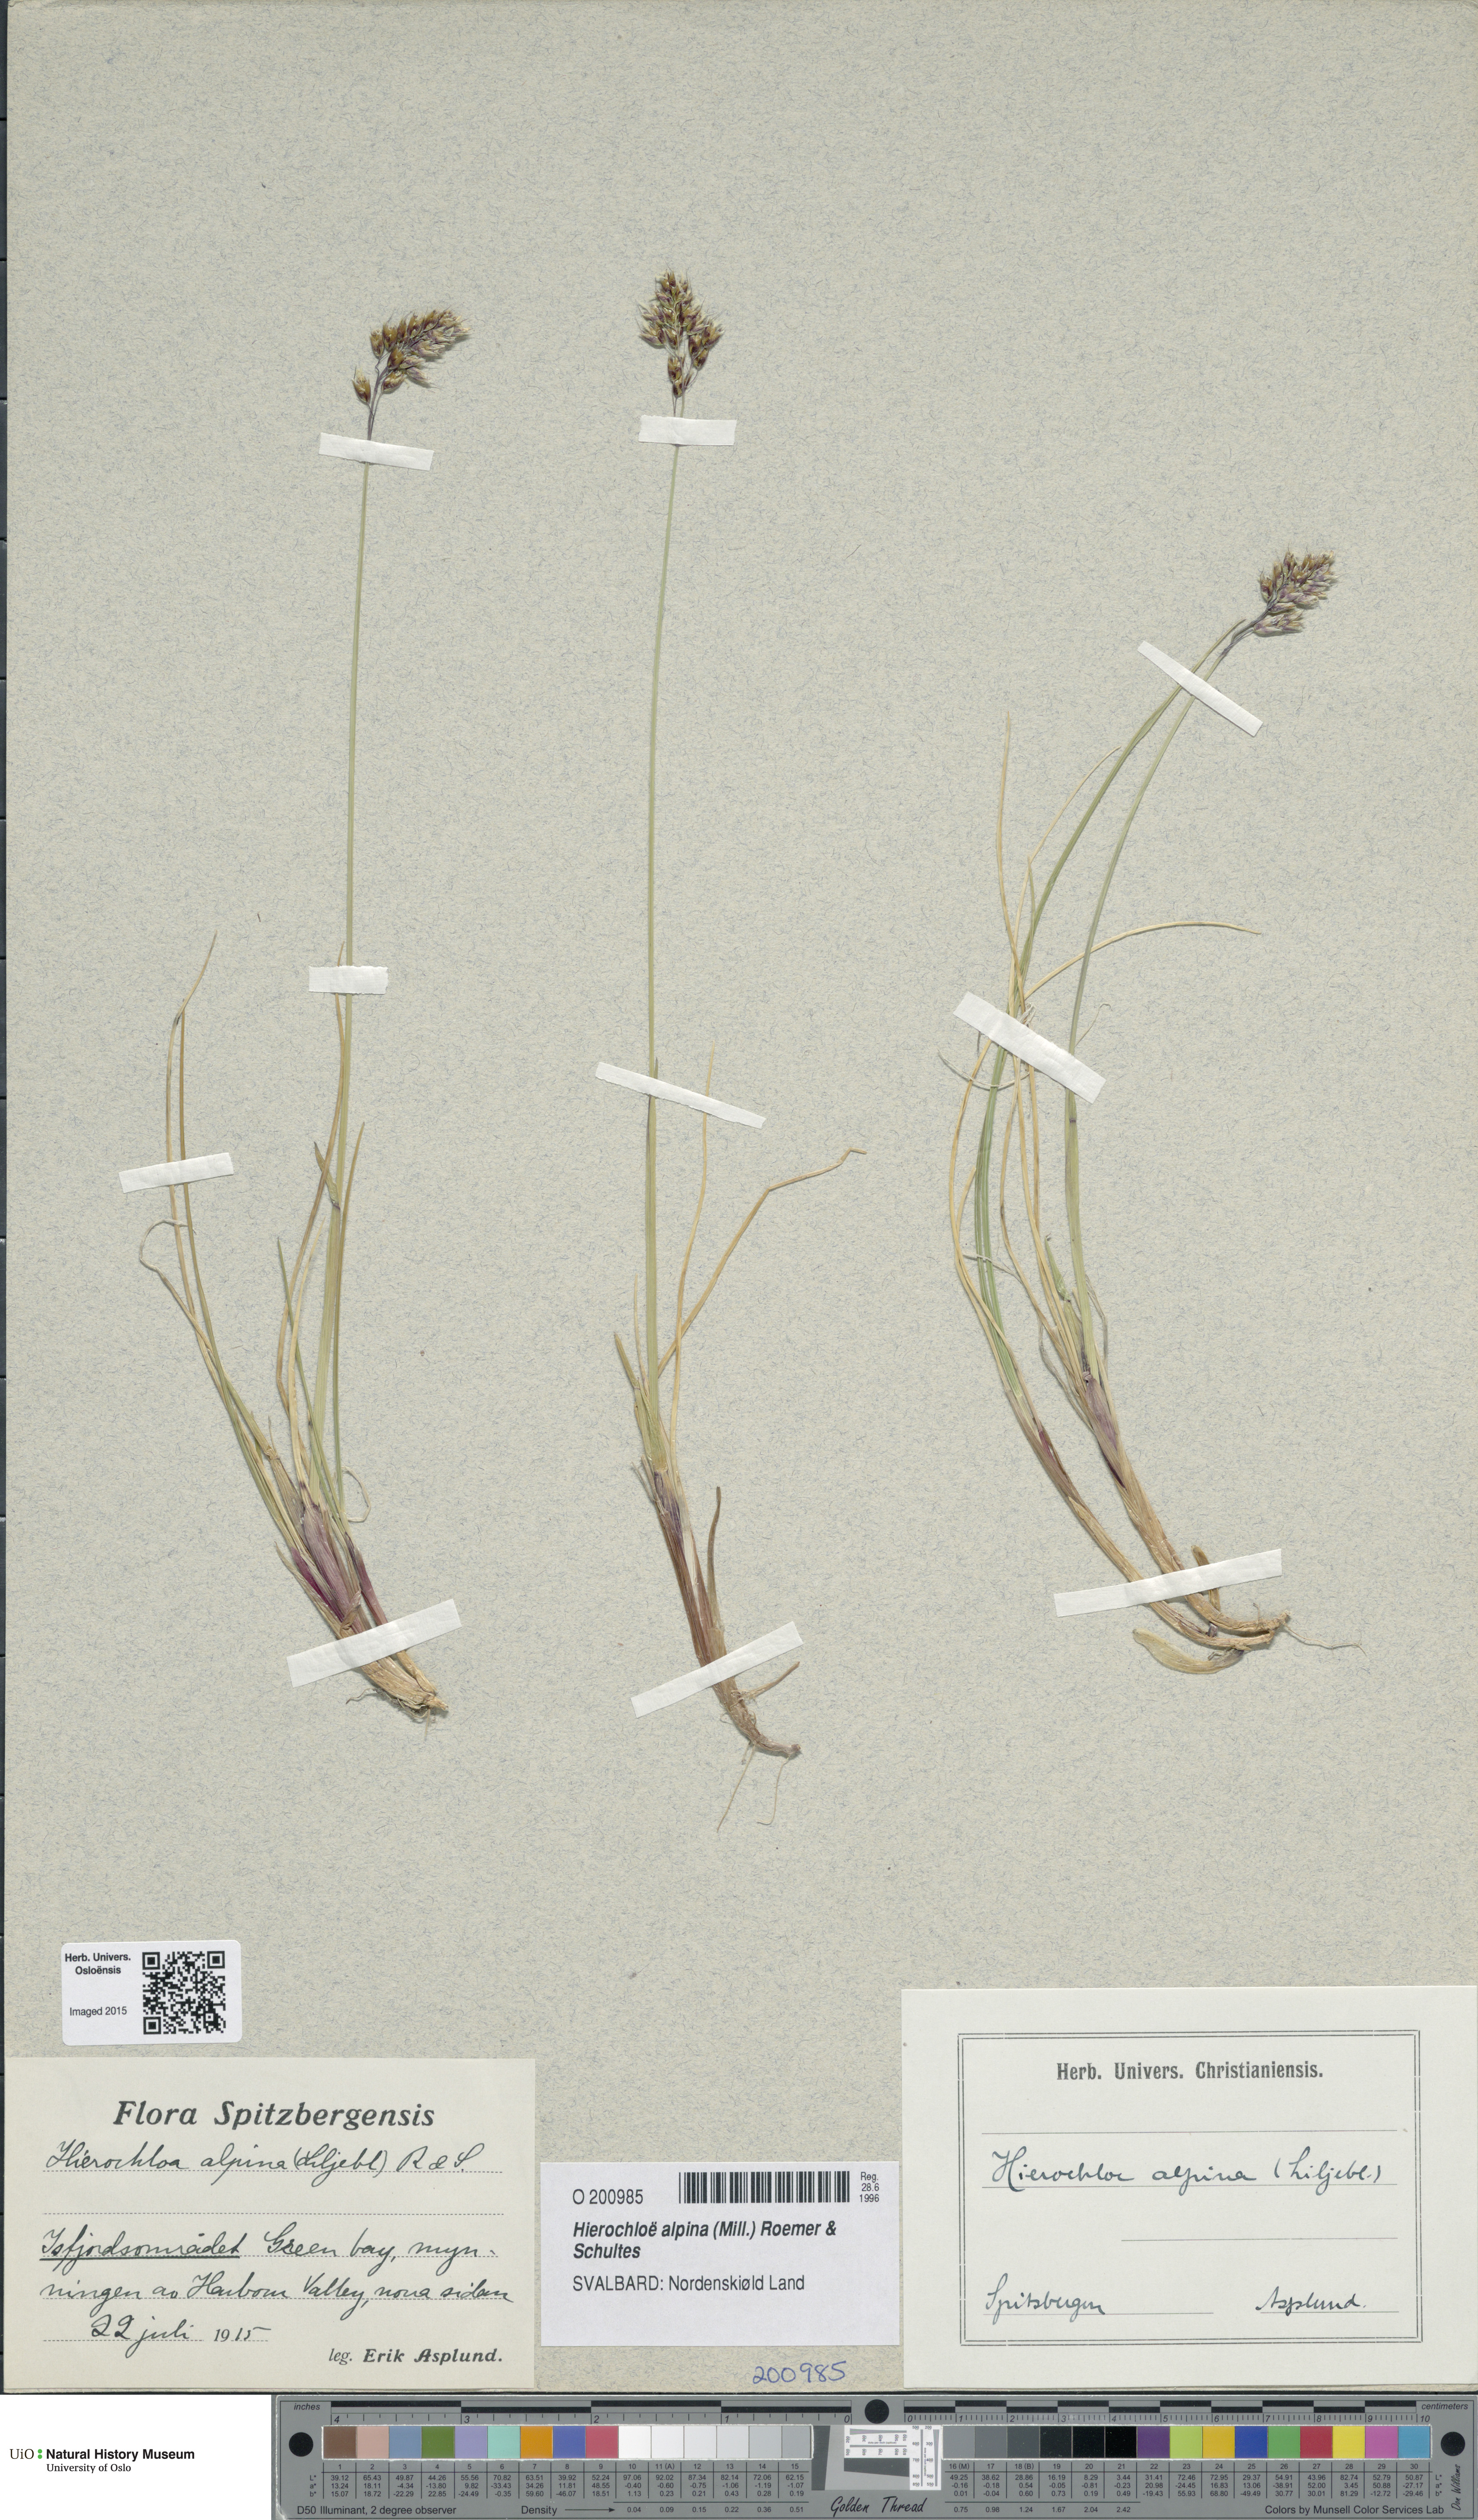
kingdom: Plantae
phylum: Tracheophyta
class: Liliopsida
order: Poales
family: Poaceae
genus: Anthoxanthum
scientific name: Anthoxanthum monticola
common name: Alpine sweetgrass
